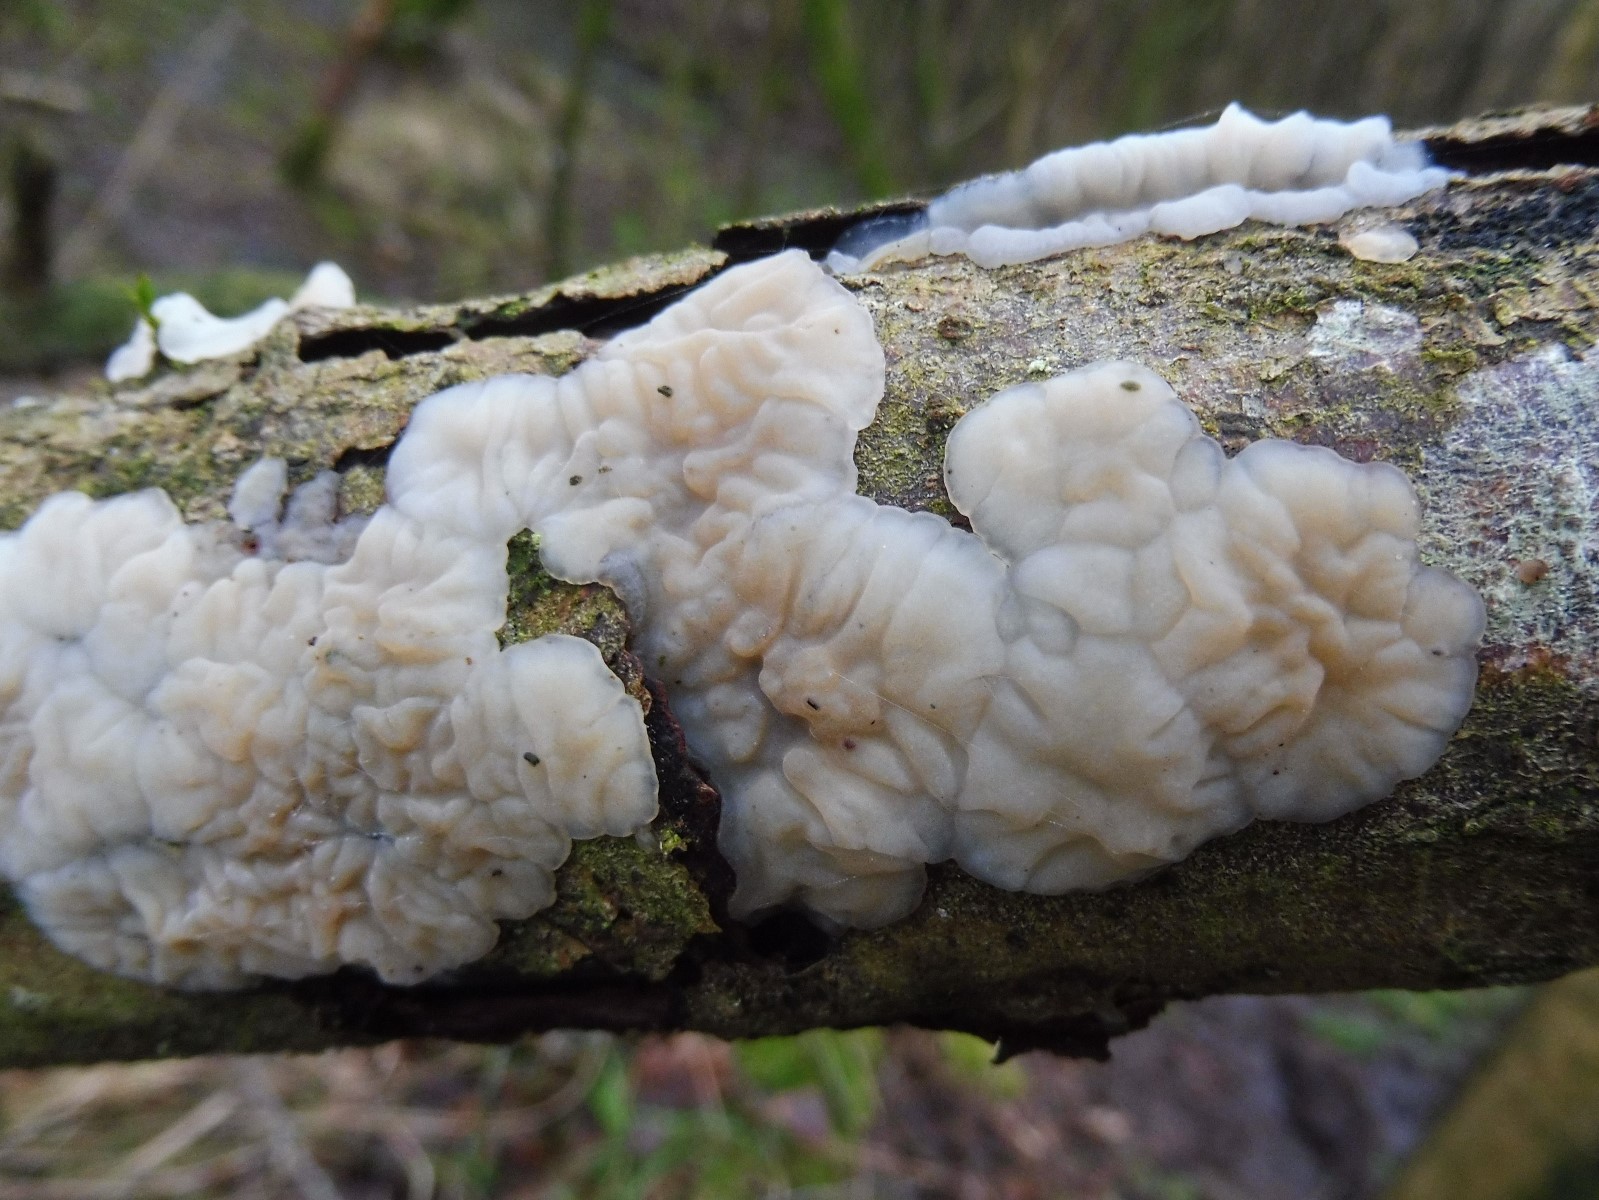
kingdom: Fungi
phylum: Basidiomycota
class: Agaricomycetes
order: Auriculariales
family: Auriculariaceae
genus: Exidia
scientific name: Exidia thuretiana
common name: hvidlig bævretop
